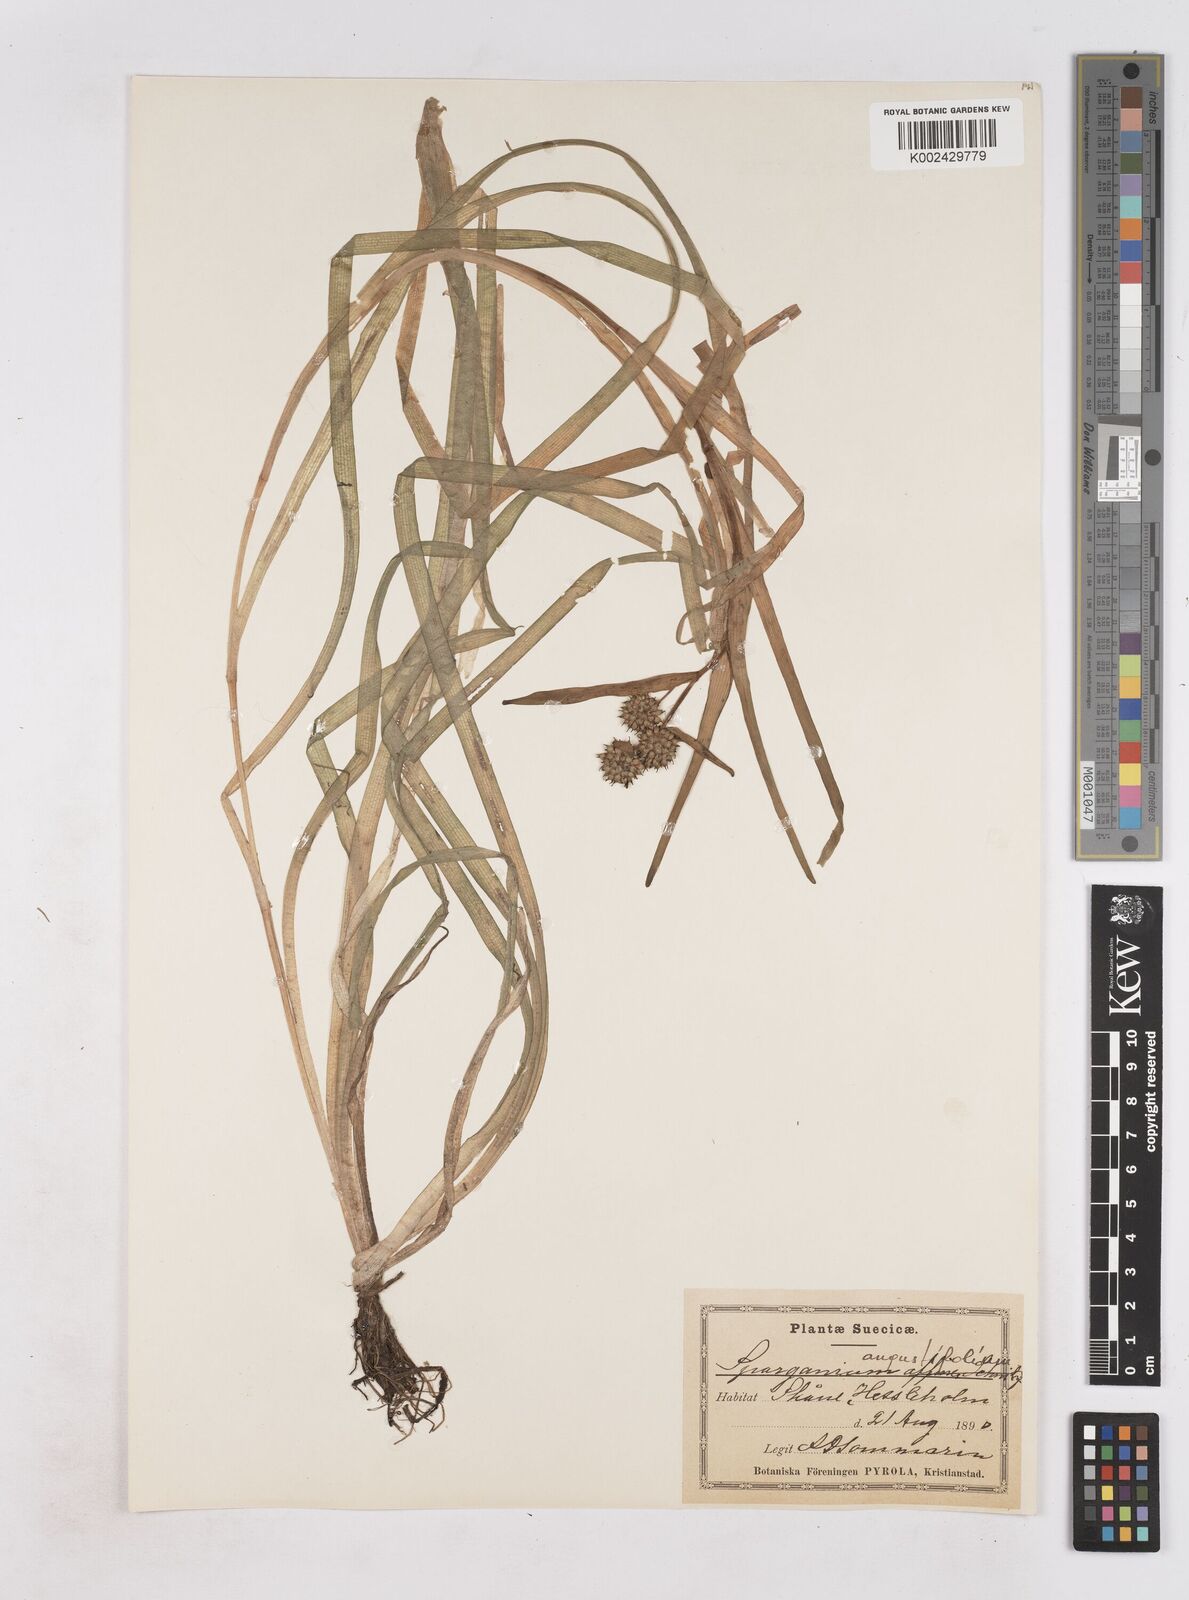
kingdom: Plantae
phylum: Tracheophyta
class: Liliopsida
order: Poales
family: Typhaceae
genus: Sparganium
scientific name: Sparganium angustifolium
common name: Floating bur-reed
